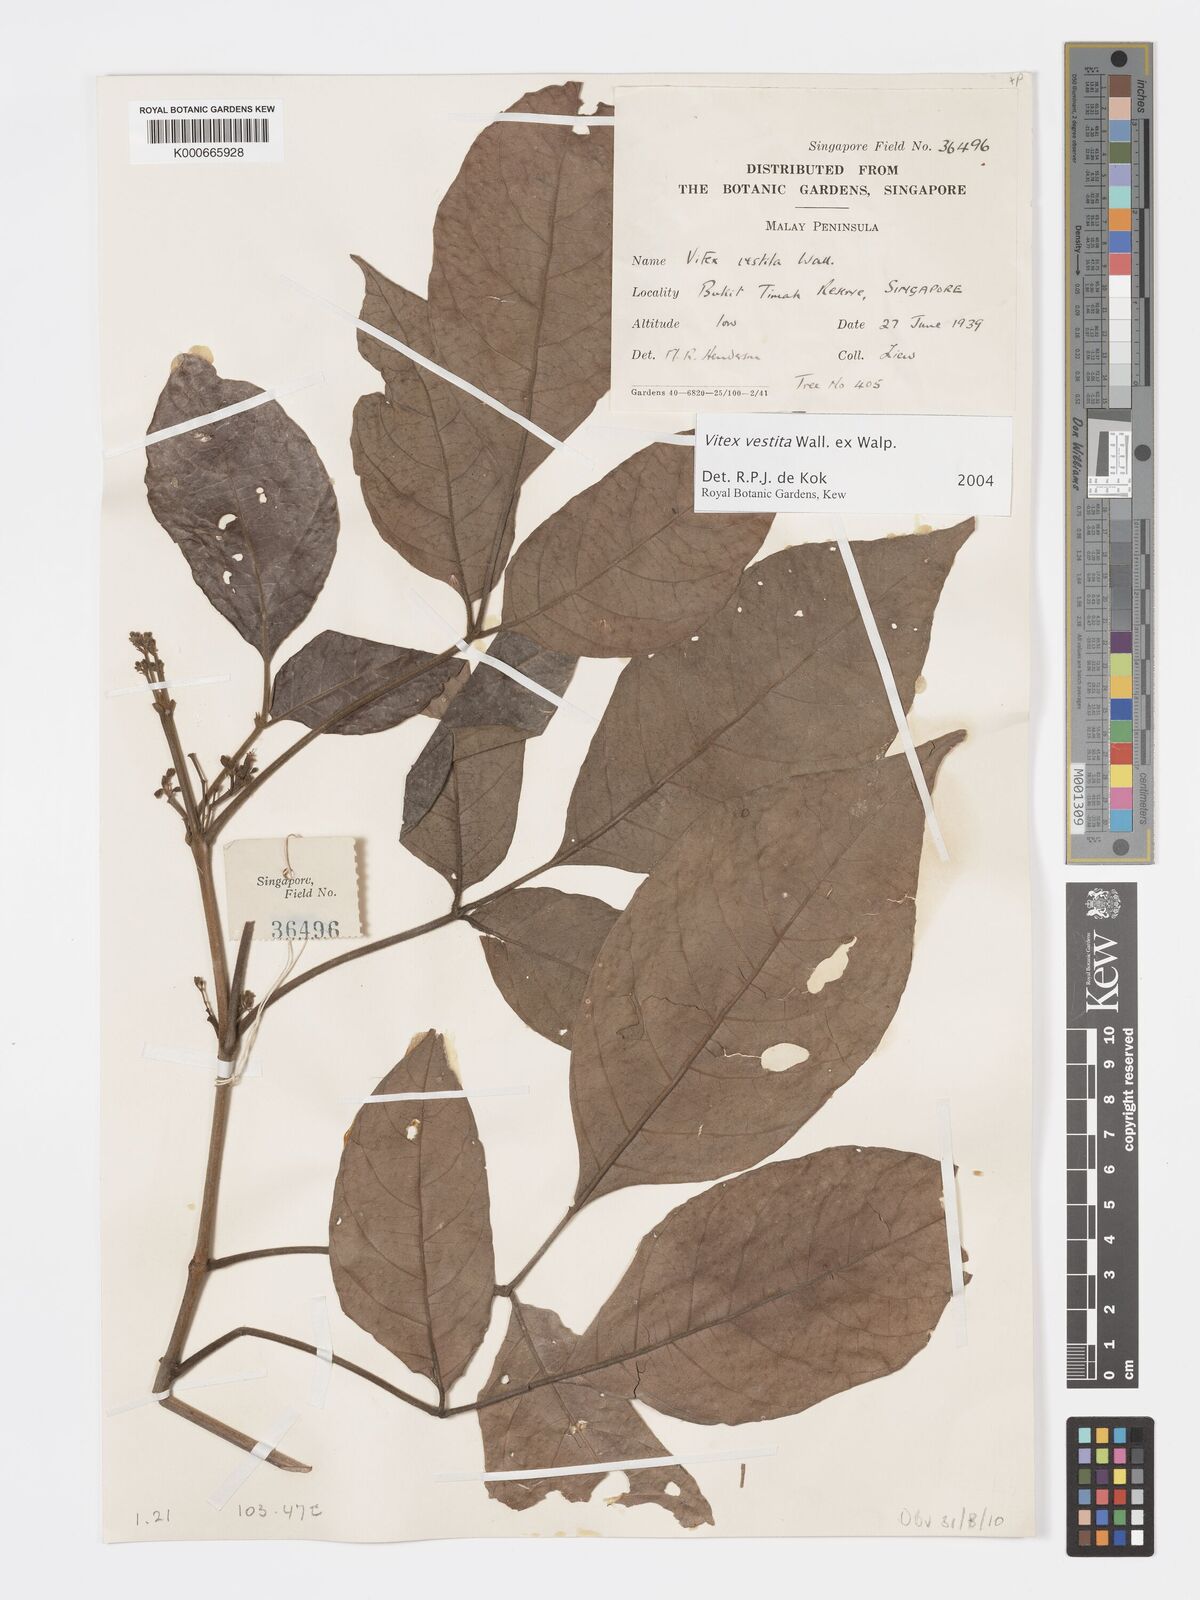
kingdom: Plantae
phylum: Tracheophyta
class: Magnoliopsida
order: Lamiales
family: Lamiaceae
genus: Vitex
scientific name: Vitex vestita
